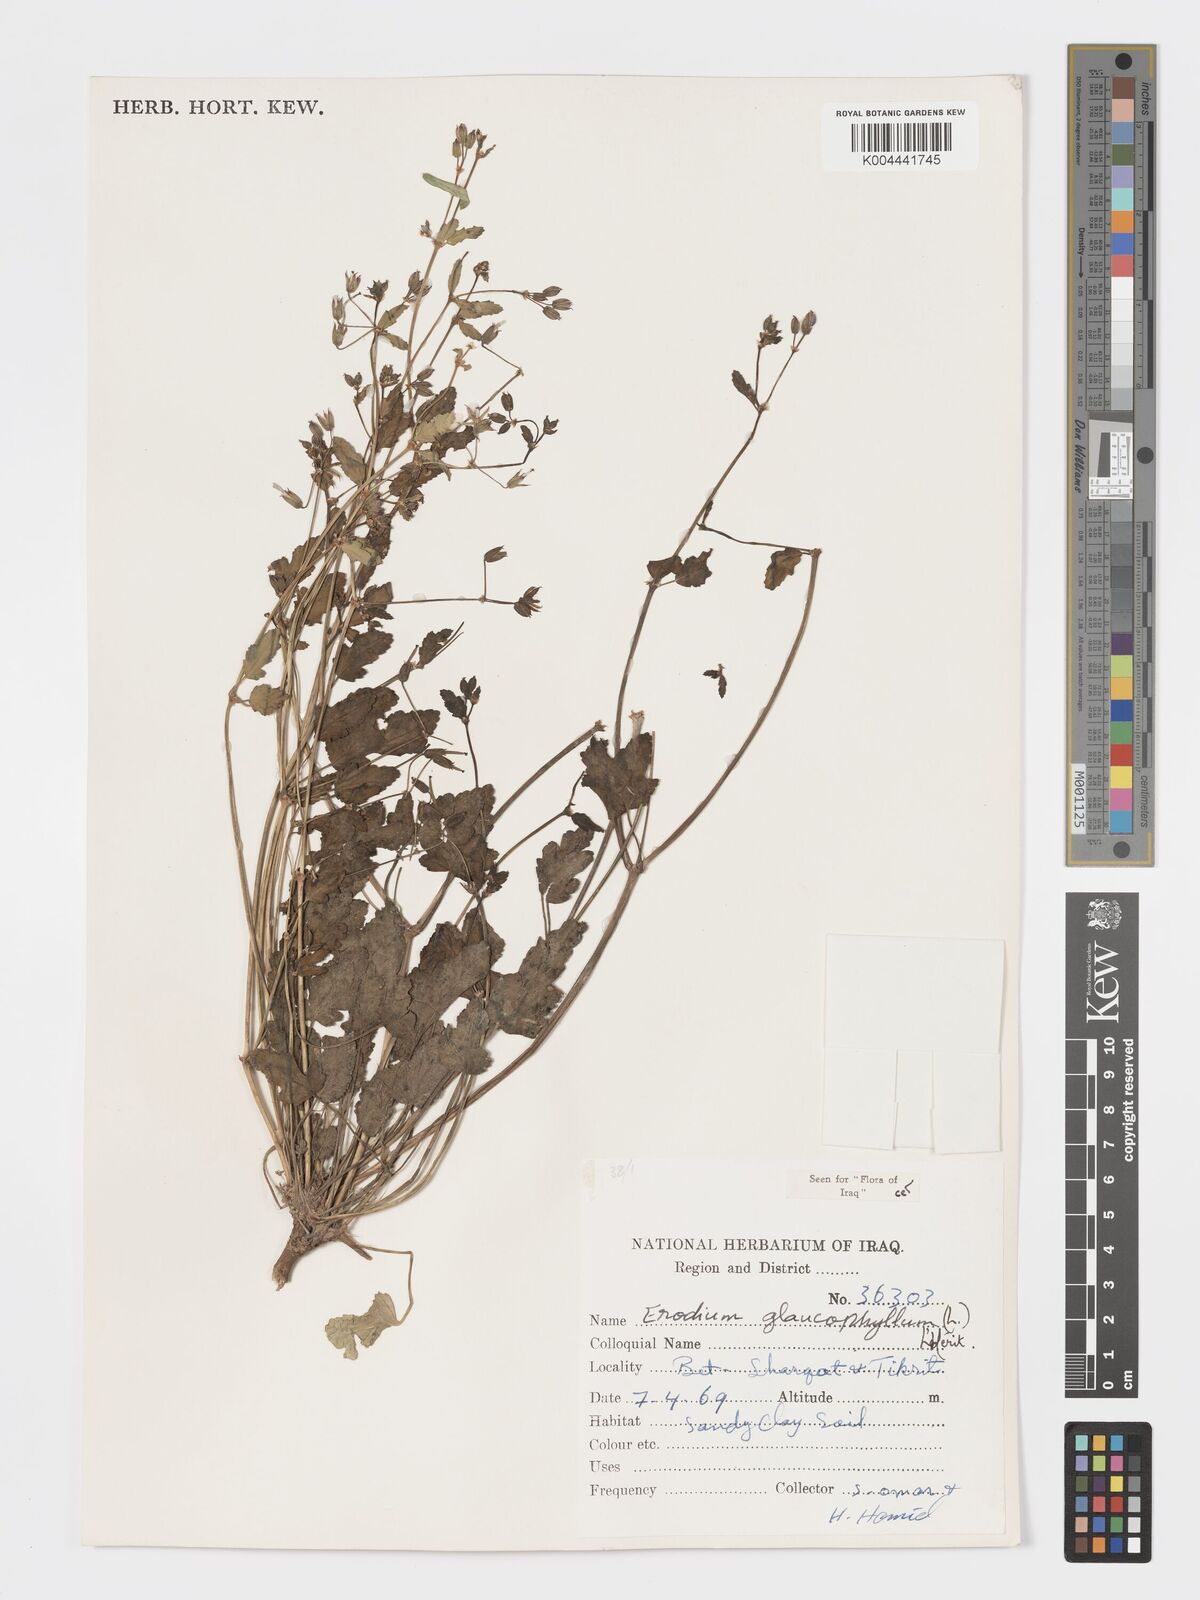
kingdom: Plantae
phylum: Tracheophyta
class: Magnoliopsida
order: Geraniales
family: Geraniaceae
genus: Erodium
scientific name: Erodium glaucophyllum
